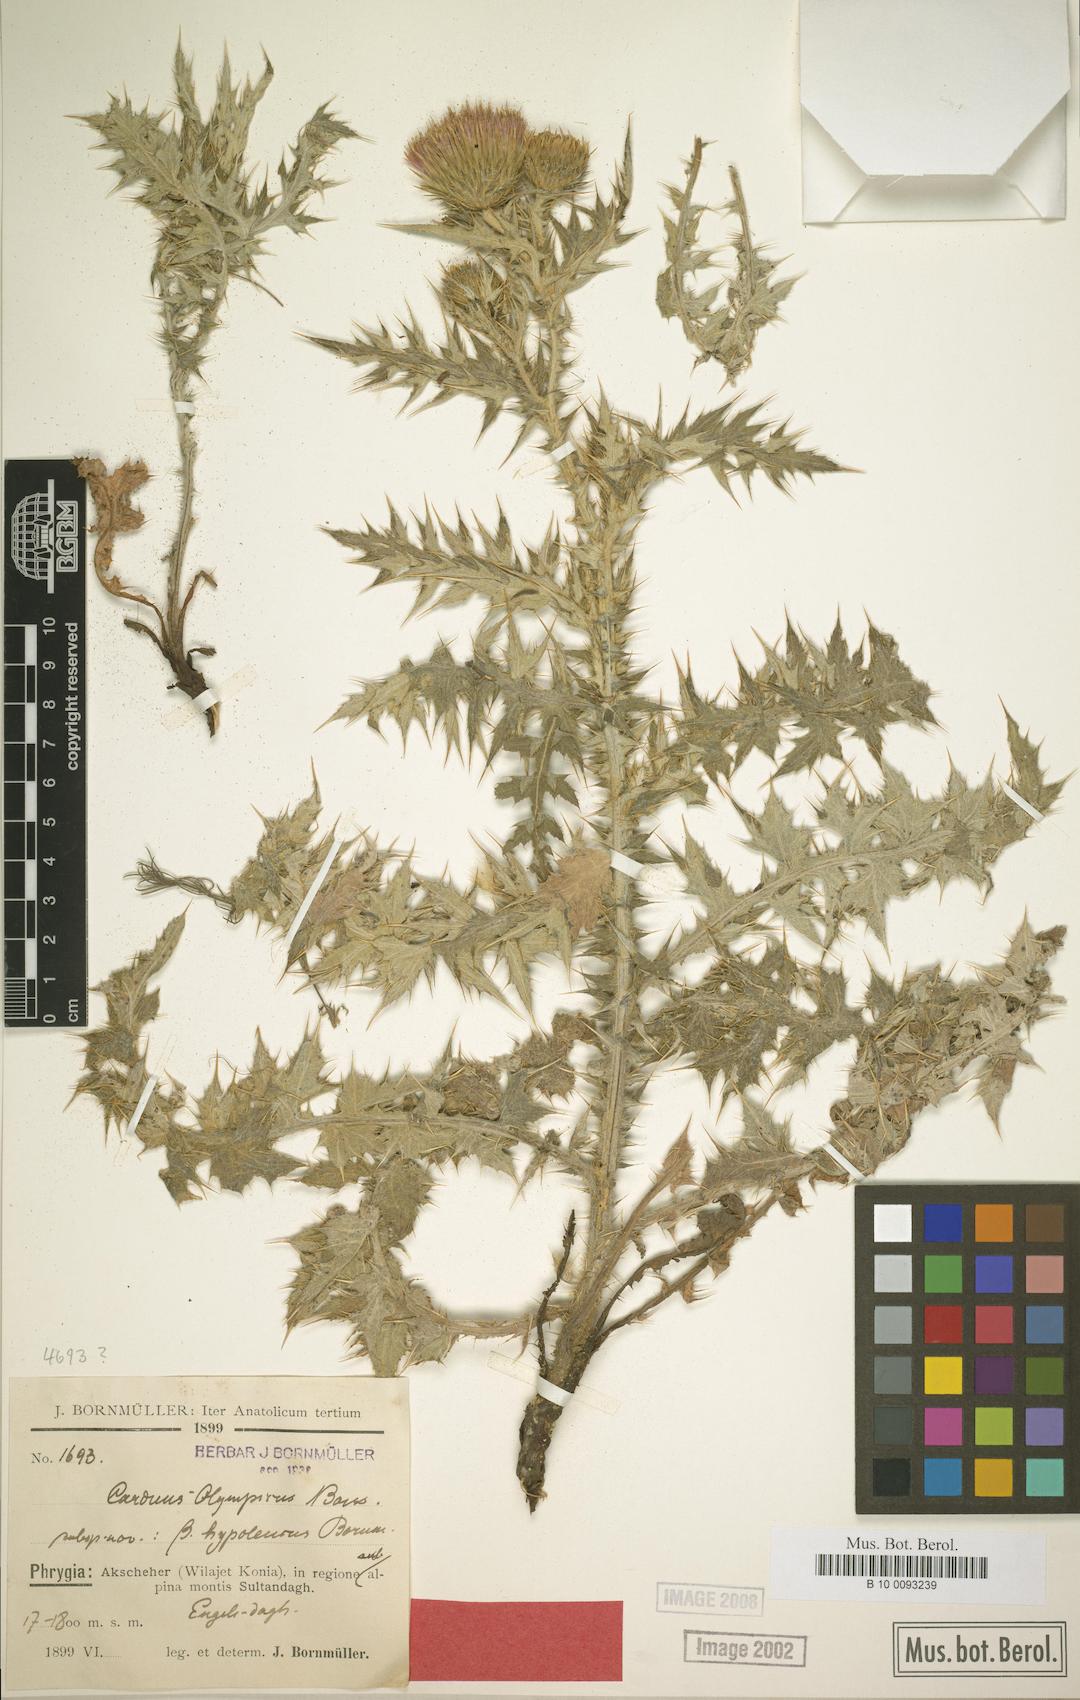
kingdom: Plantae
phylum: Tracheophyta
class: Magnoliopsida
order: Asterales
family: Asteraceae
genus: Carduus
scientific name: Carduus olympicus
